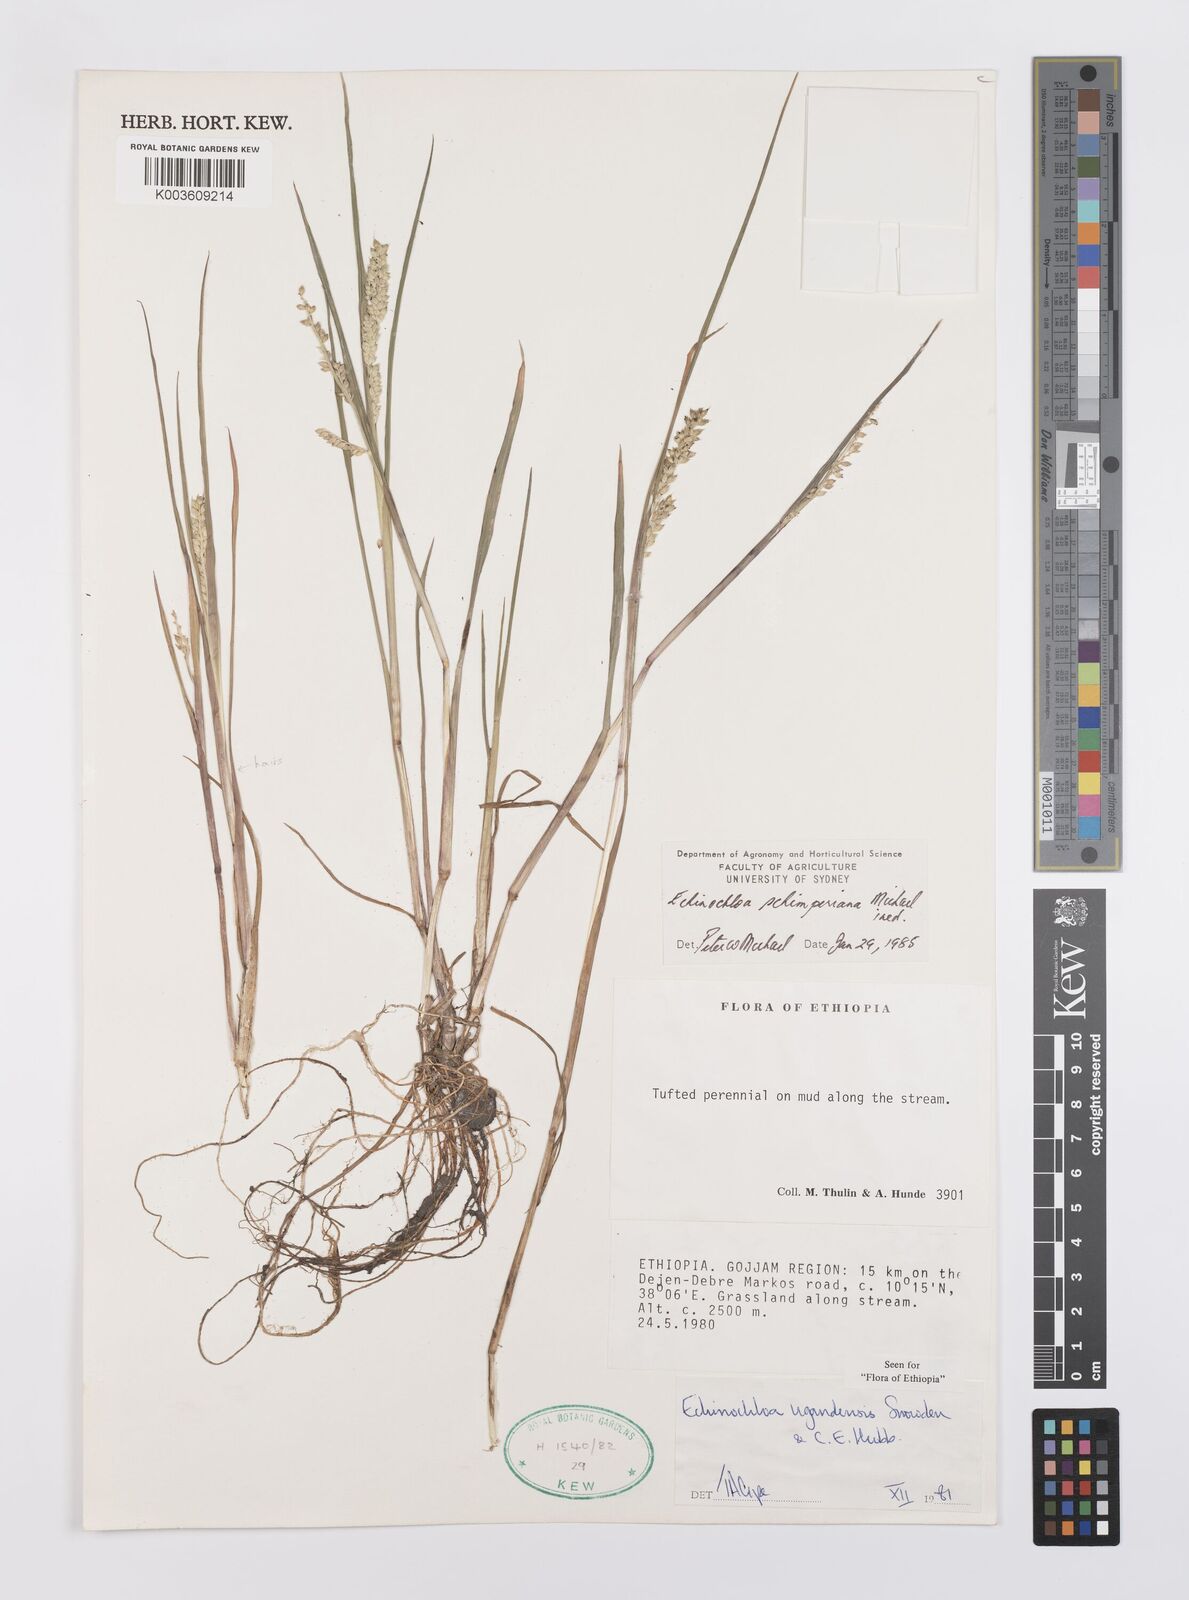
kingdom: Plantae
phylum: Tracheophyta
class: Liliopsida
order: Poales
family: Poaceae
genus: Echinochloa
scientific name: Echinochloa ugandensis
